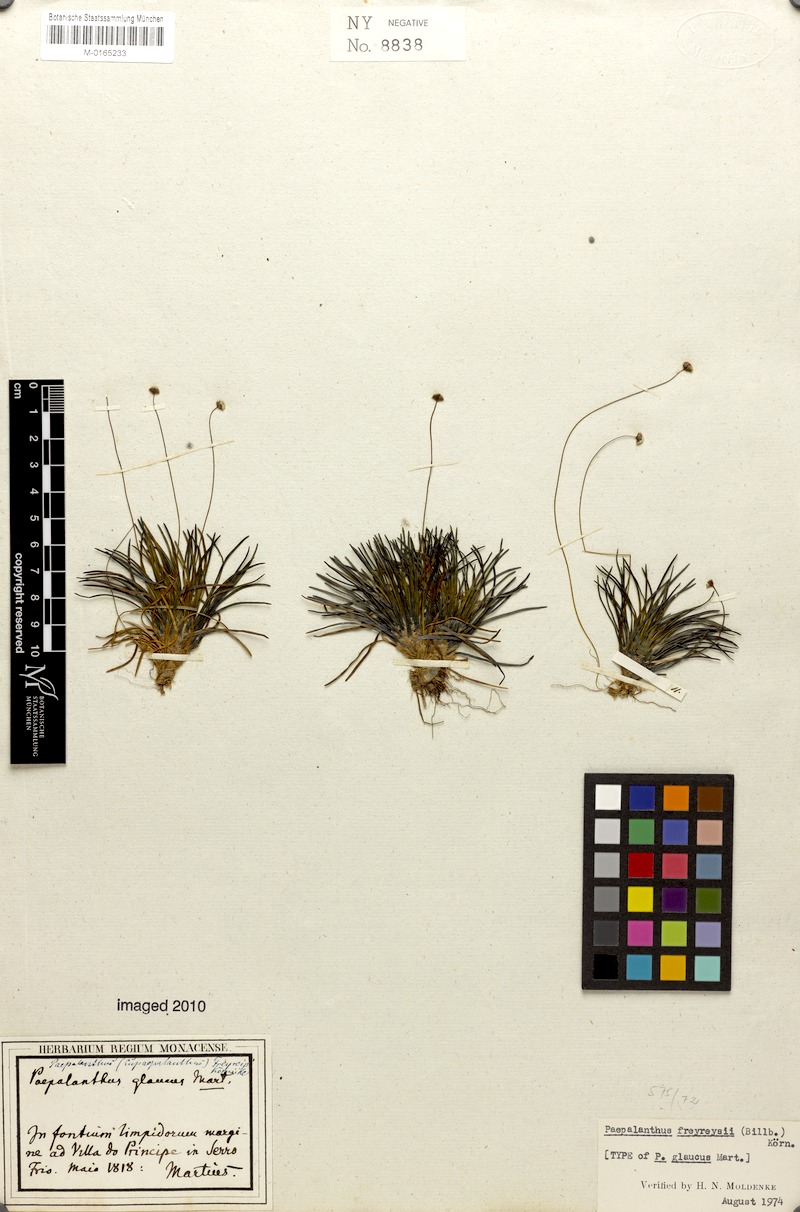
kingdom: Plantae
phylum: Tracheophyta
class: Liliopsida
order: Poales
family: Eriocaulaceae
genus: Paepalanthus
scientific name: Paepalanthus freyreissii
